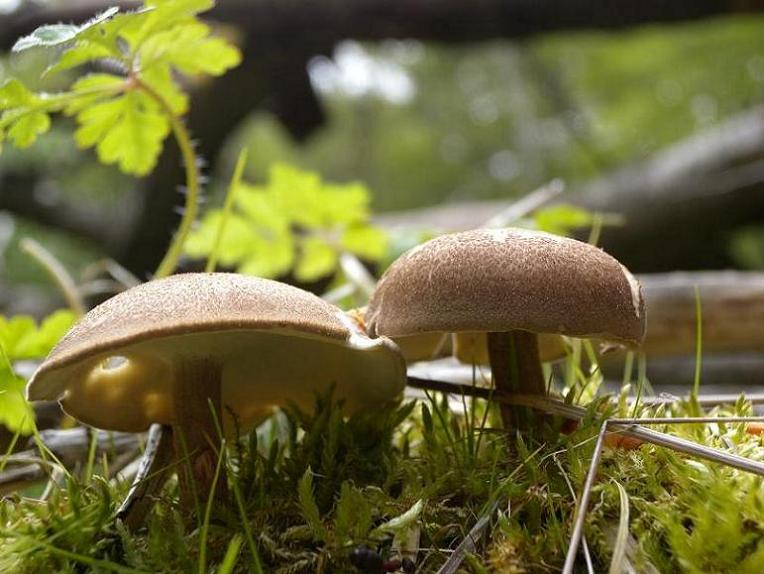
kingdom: Fungi
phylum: Basidiomycota
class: Agaricomycetes
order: Polyporales
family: Polyporaceae
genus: Lentinus
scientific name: Lentinus substrictus
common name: forårs-stilkporesvamp
